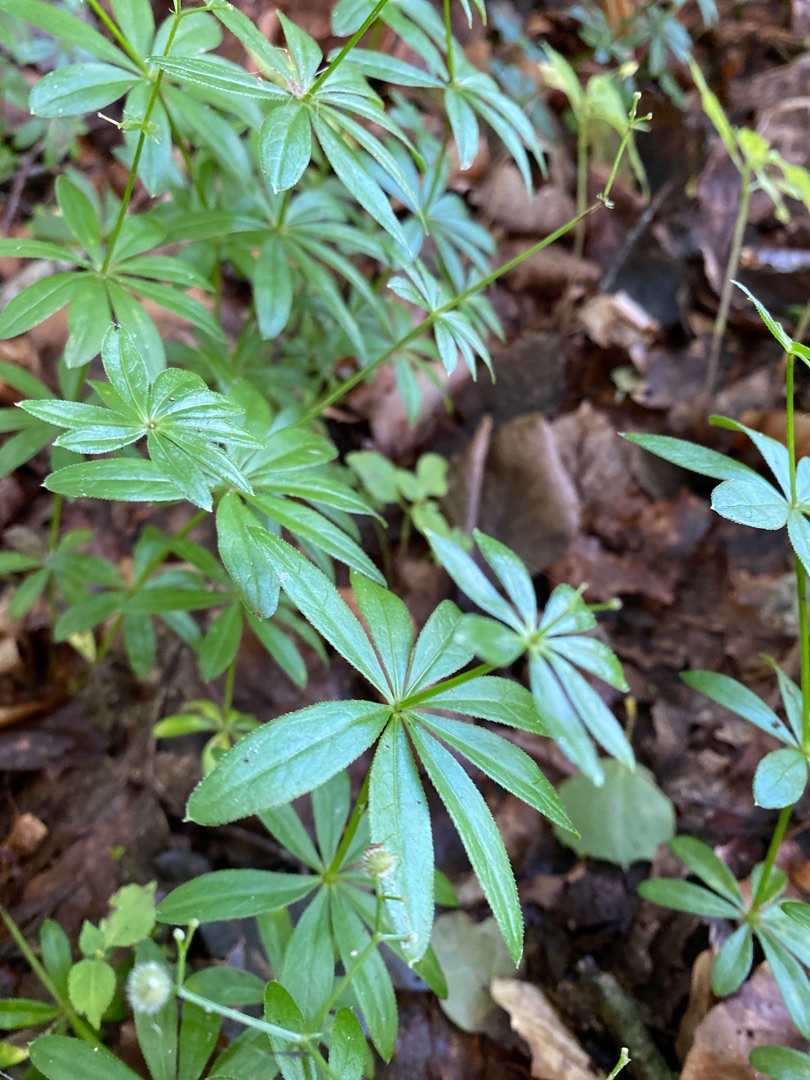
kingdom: Plantae
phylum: Tracheophyta
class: Magnoliopsida
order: Gentianales
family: Rubiaceae
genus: Galium
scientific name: Galium odoratum
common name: Skovmærke
